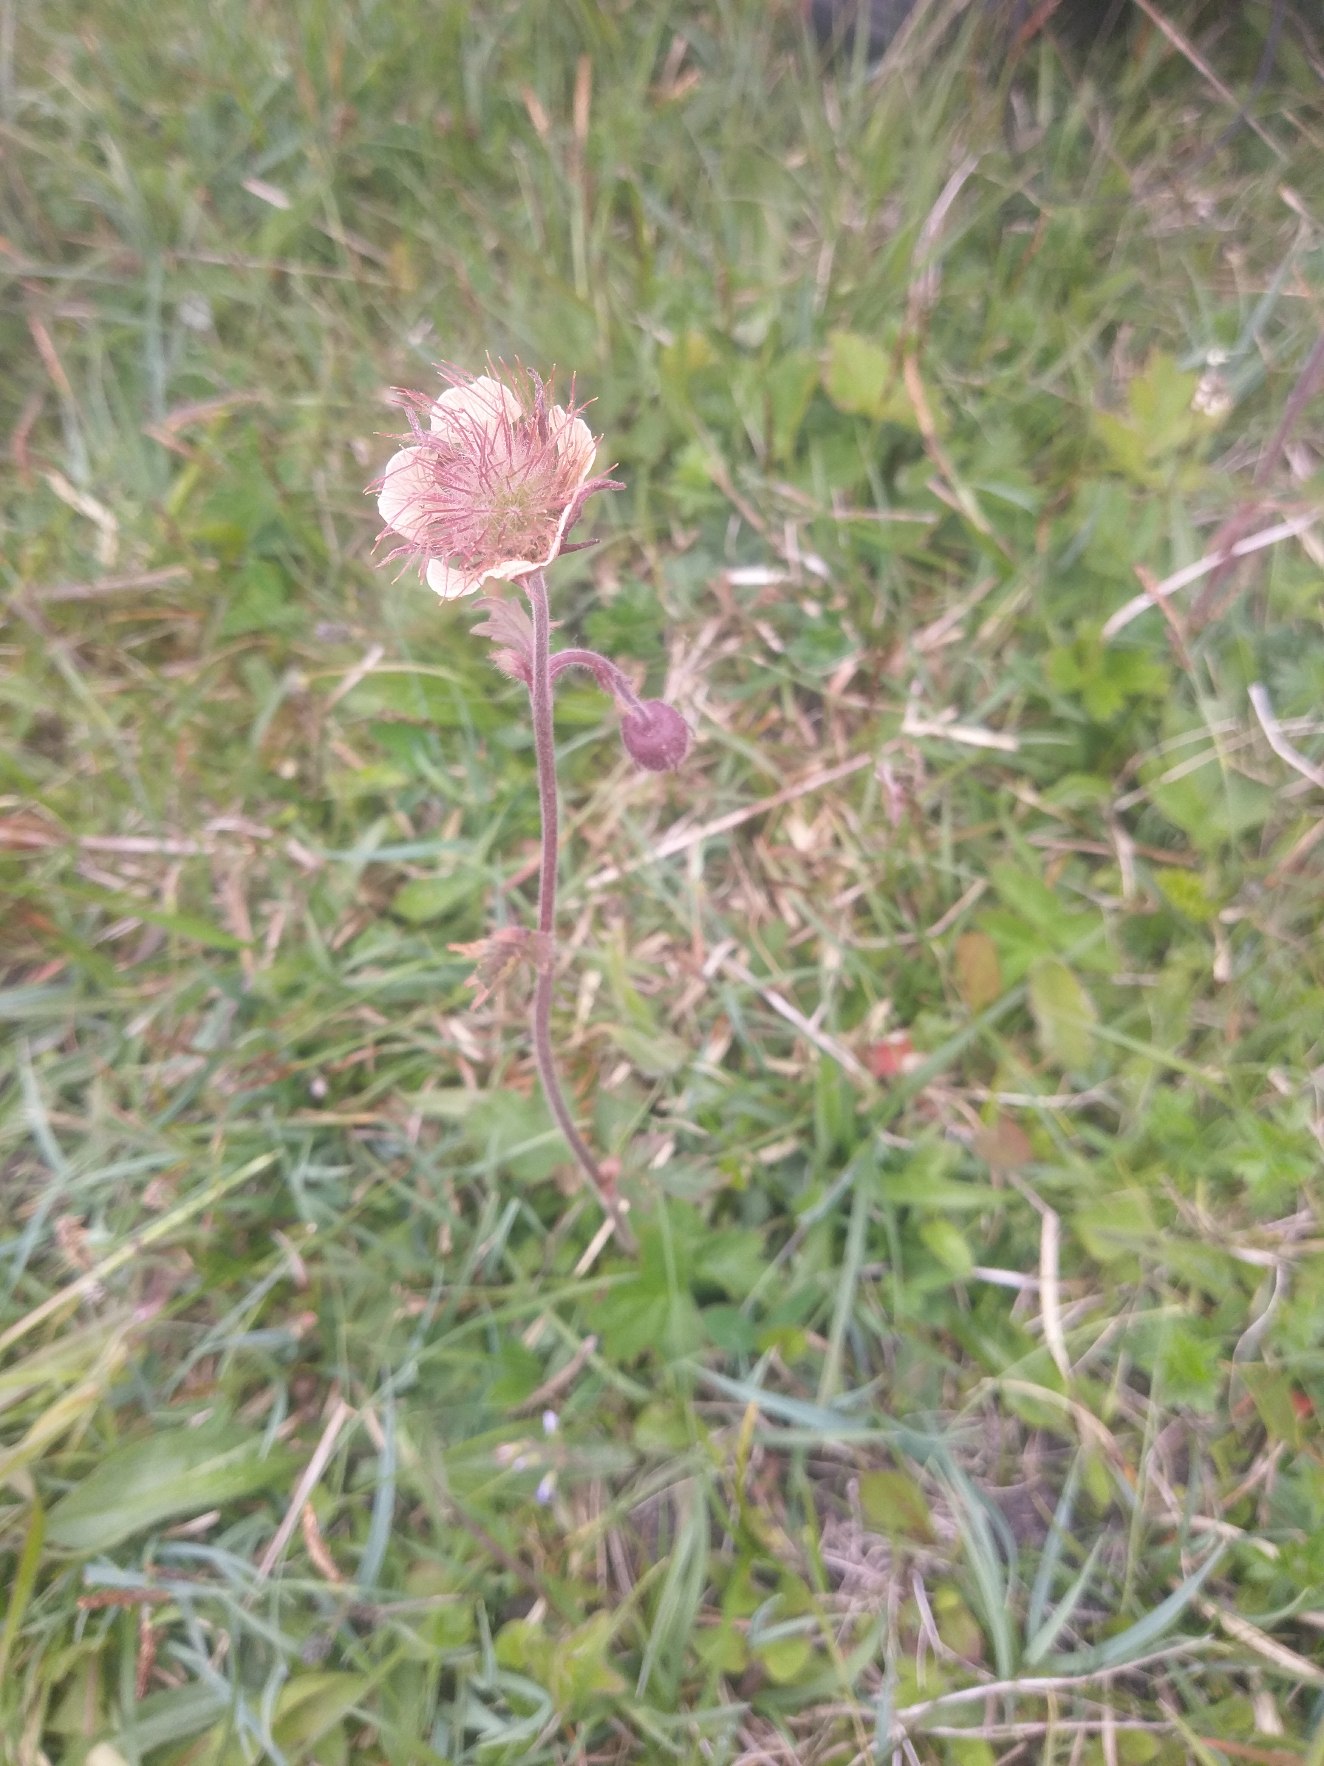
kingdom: Plantae
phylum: Tracheophyta
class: Magnoliopsida
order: Rosales
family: Rosaceae
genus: Geum
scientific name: Geum rivale
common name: Eng-nellikerod
